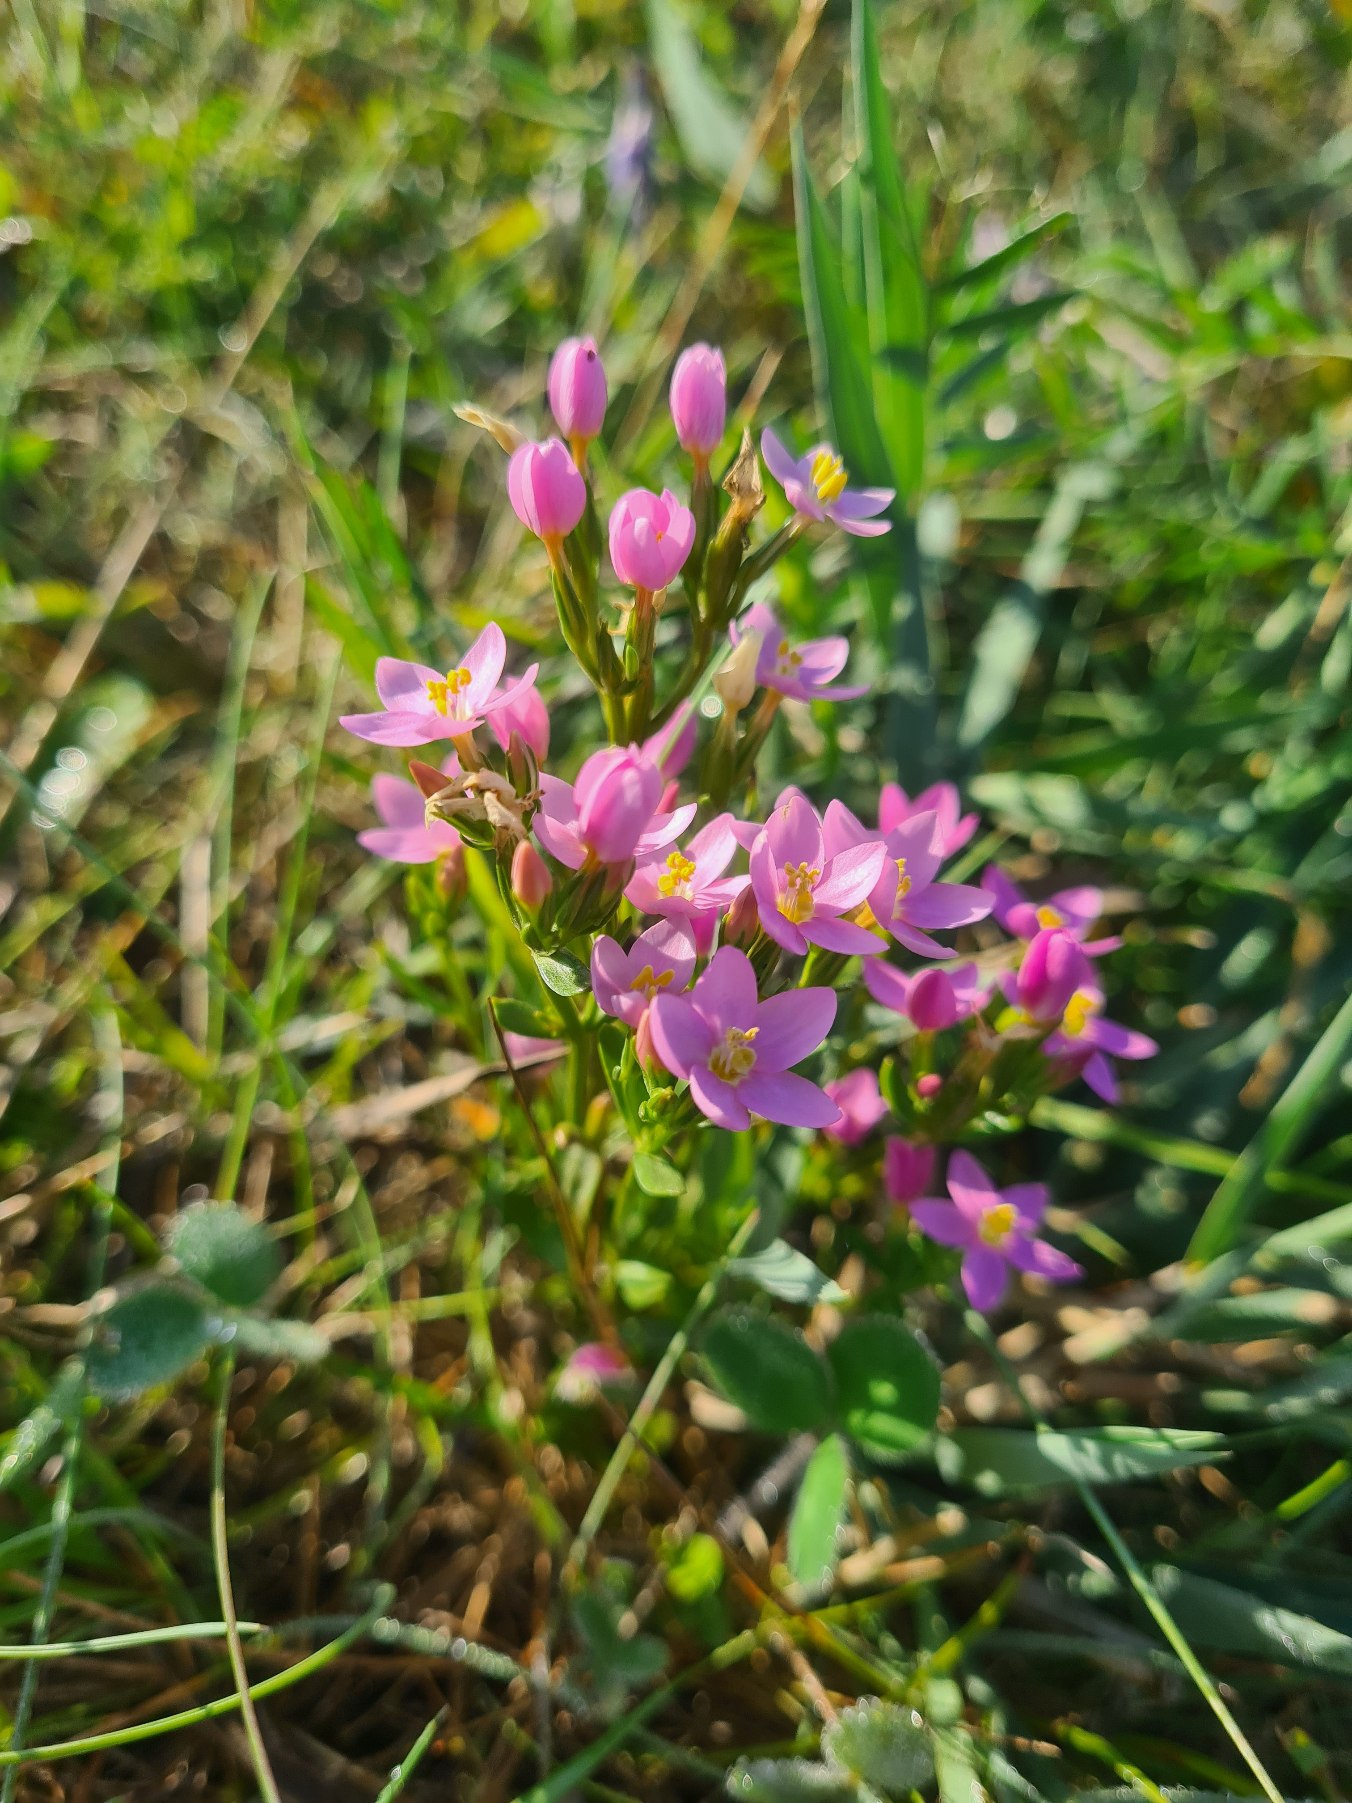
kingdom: Plantae
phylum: Tracheophyta
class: Magnoliopsida
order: Gentianales
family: Gentianaceae
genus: Centaurium
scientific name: Centaurium littorale
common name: Strand-tusindgylden
